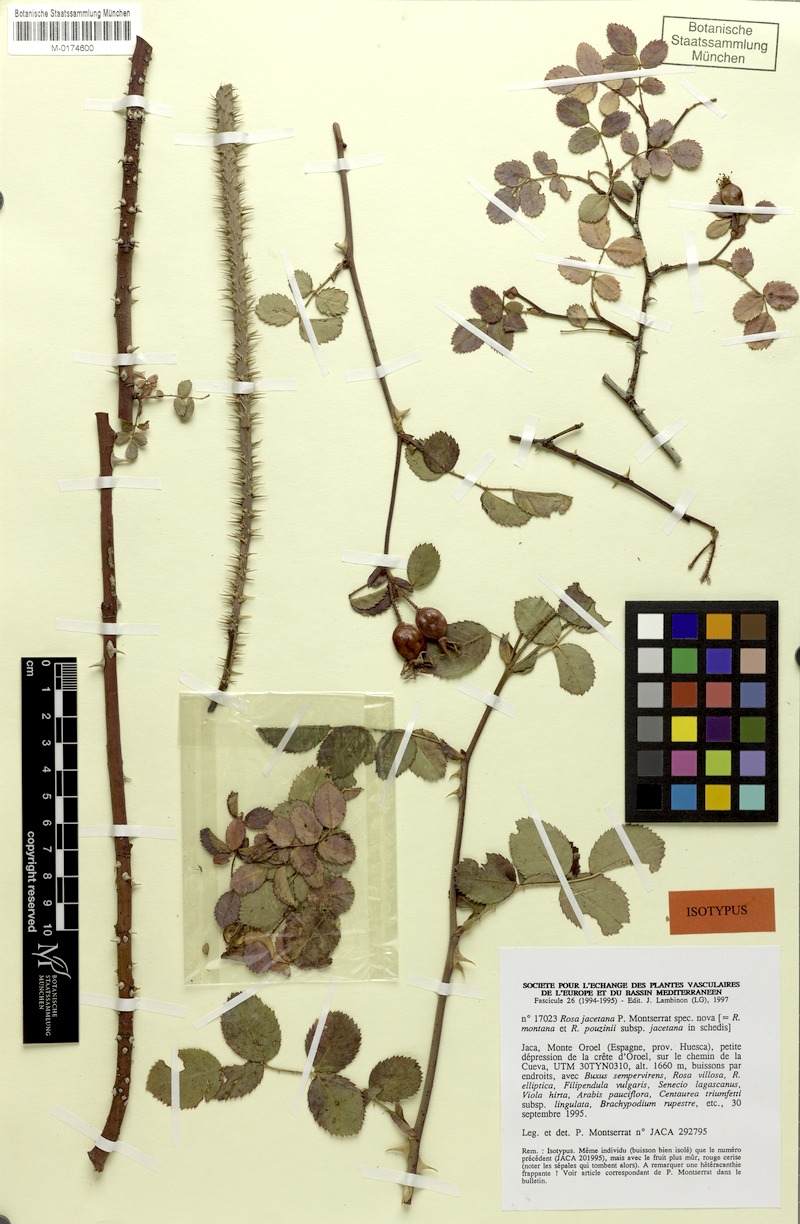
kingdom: Plantae
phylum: Tracheophyta
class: Magnoliopsida
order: Rosales
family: Rosaceae
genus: Rosa
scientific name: Rosa pouzinii
